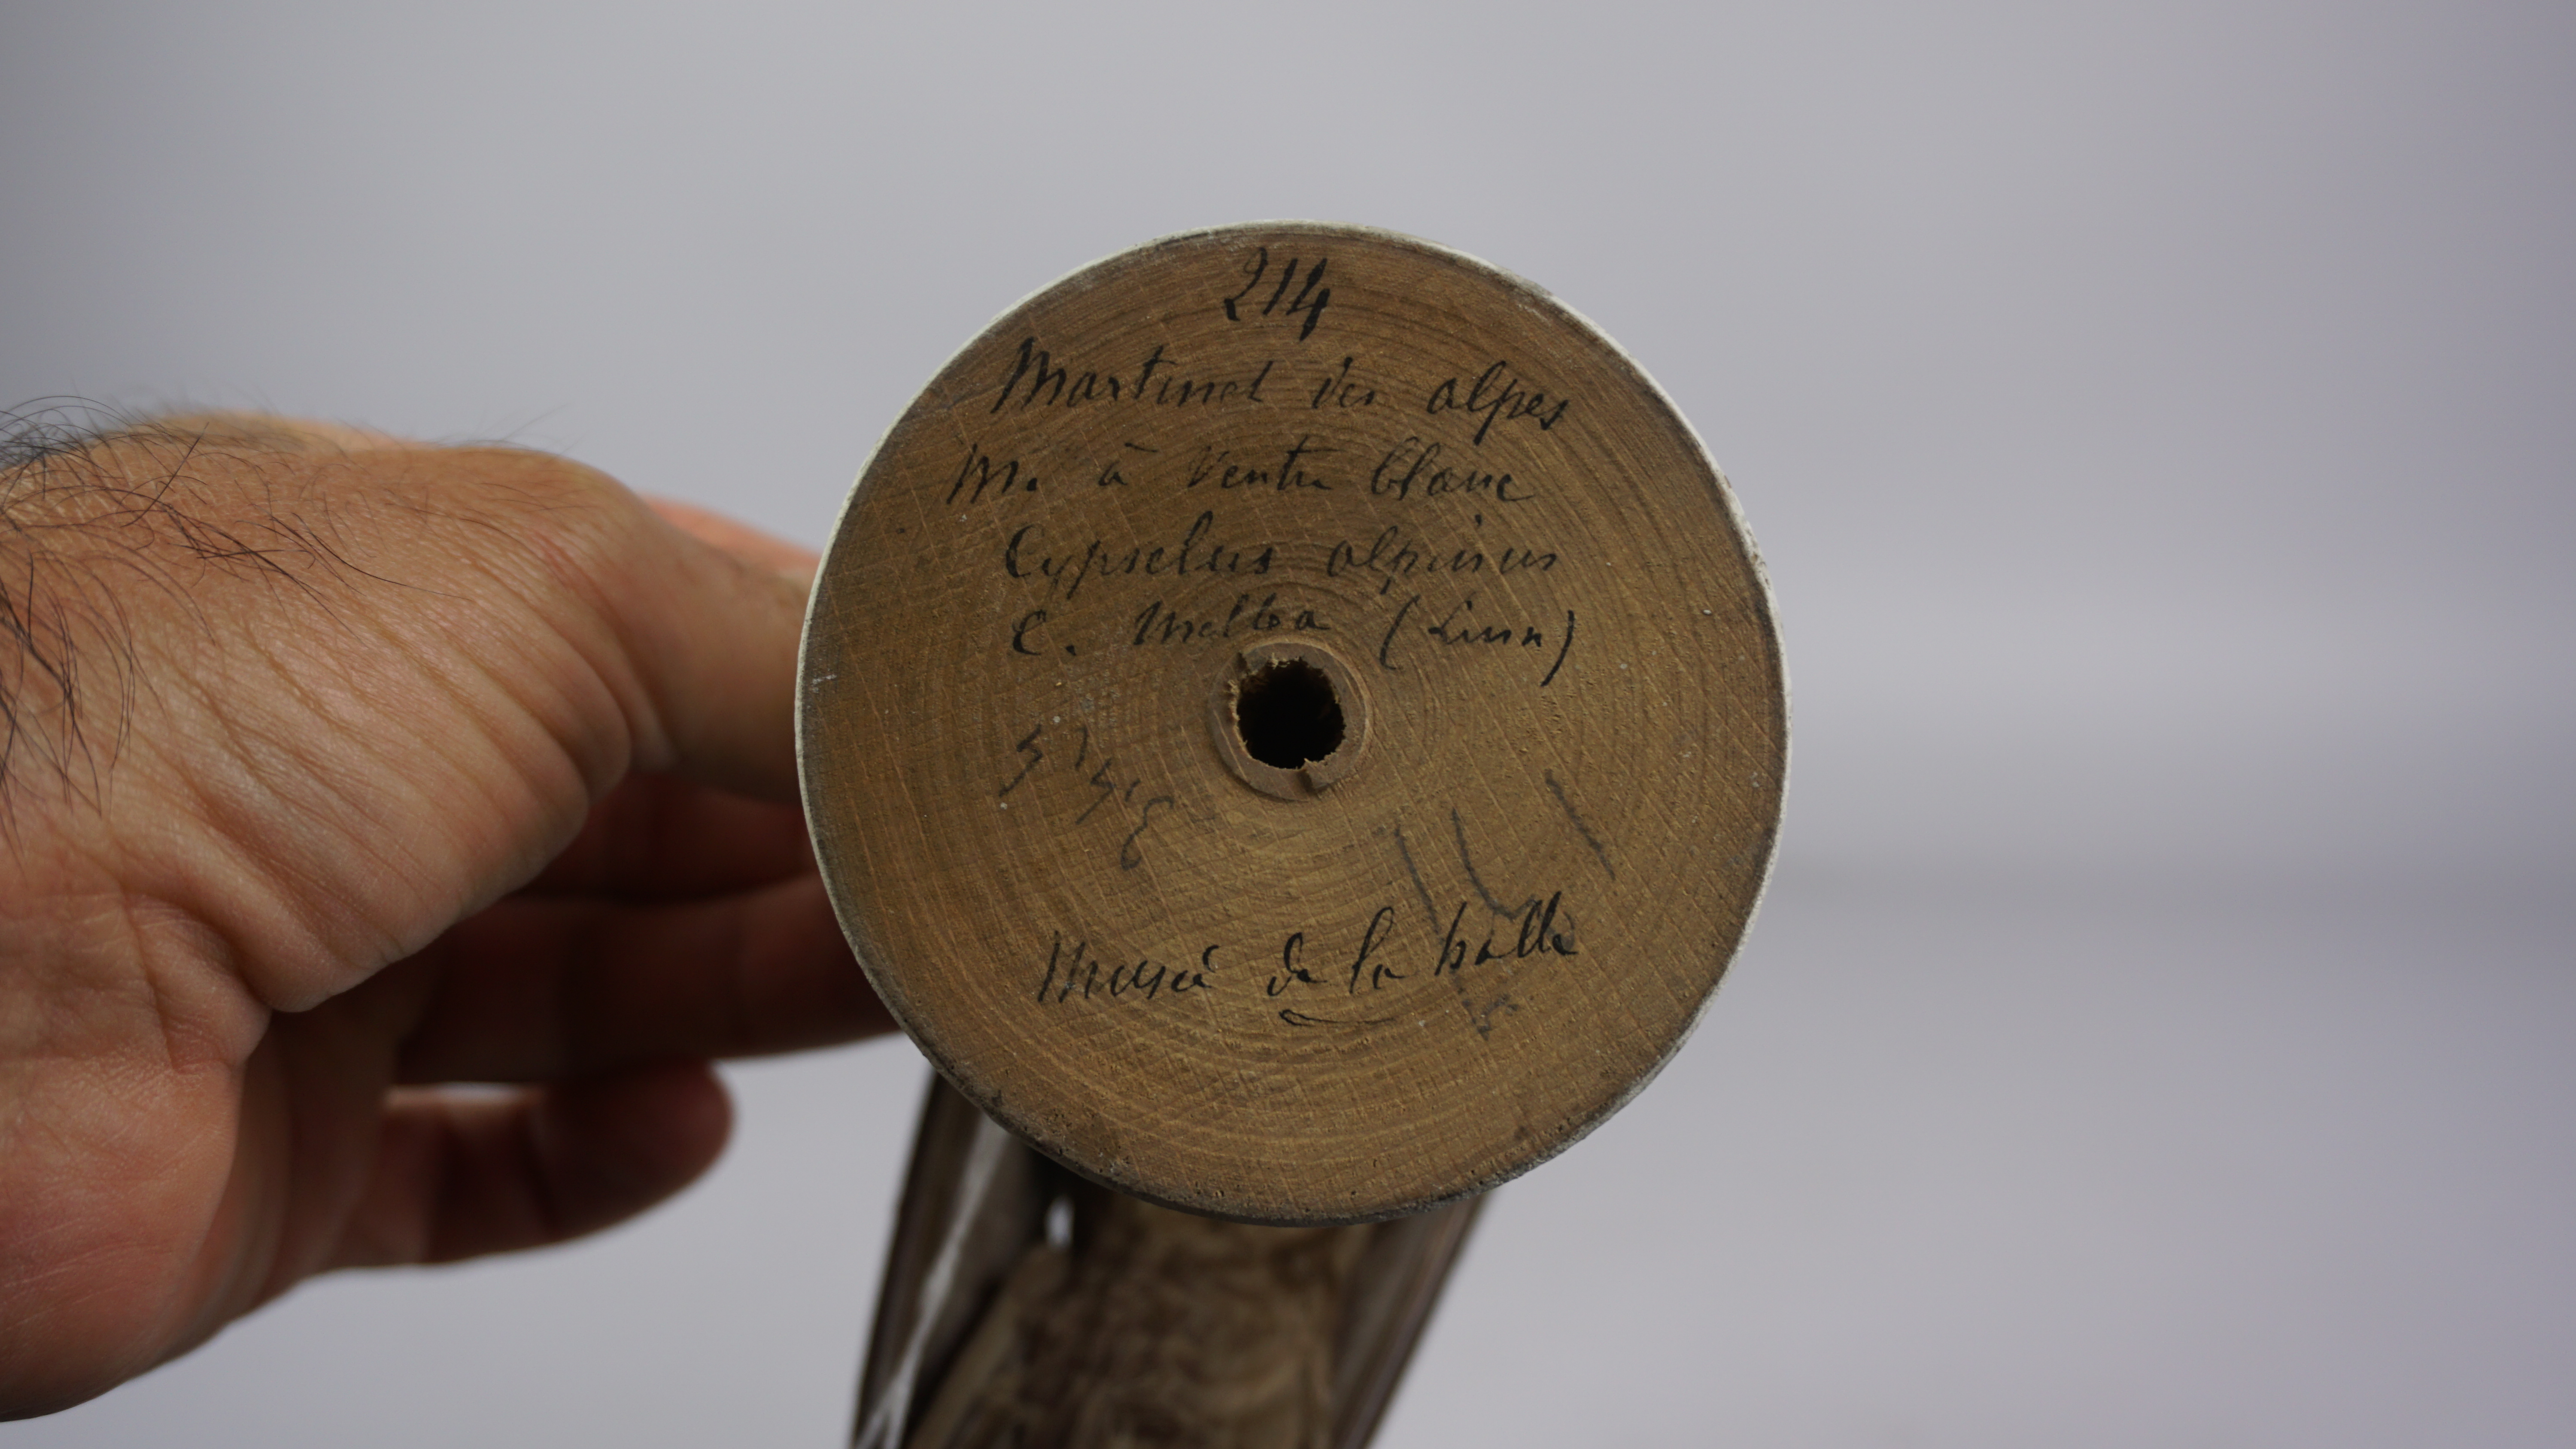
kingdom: Animalia
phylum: Chordata
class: Aves
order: Apodiformes
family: Apodidae
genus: Tachymarptis
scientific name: Tachymarptis melba
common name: Alpine swift
